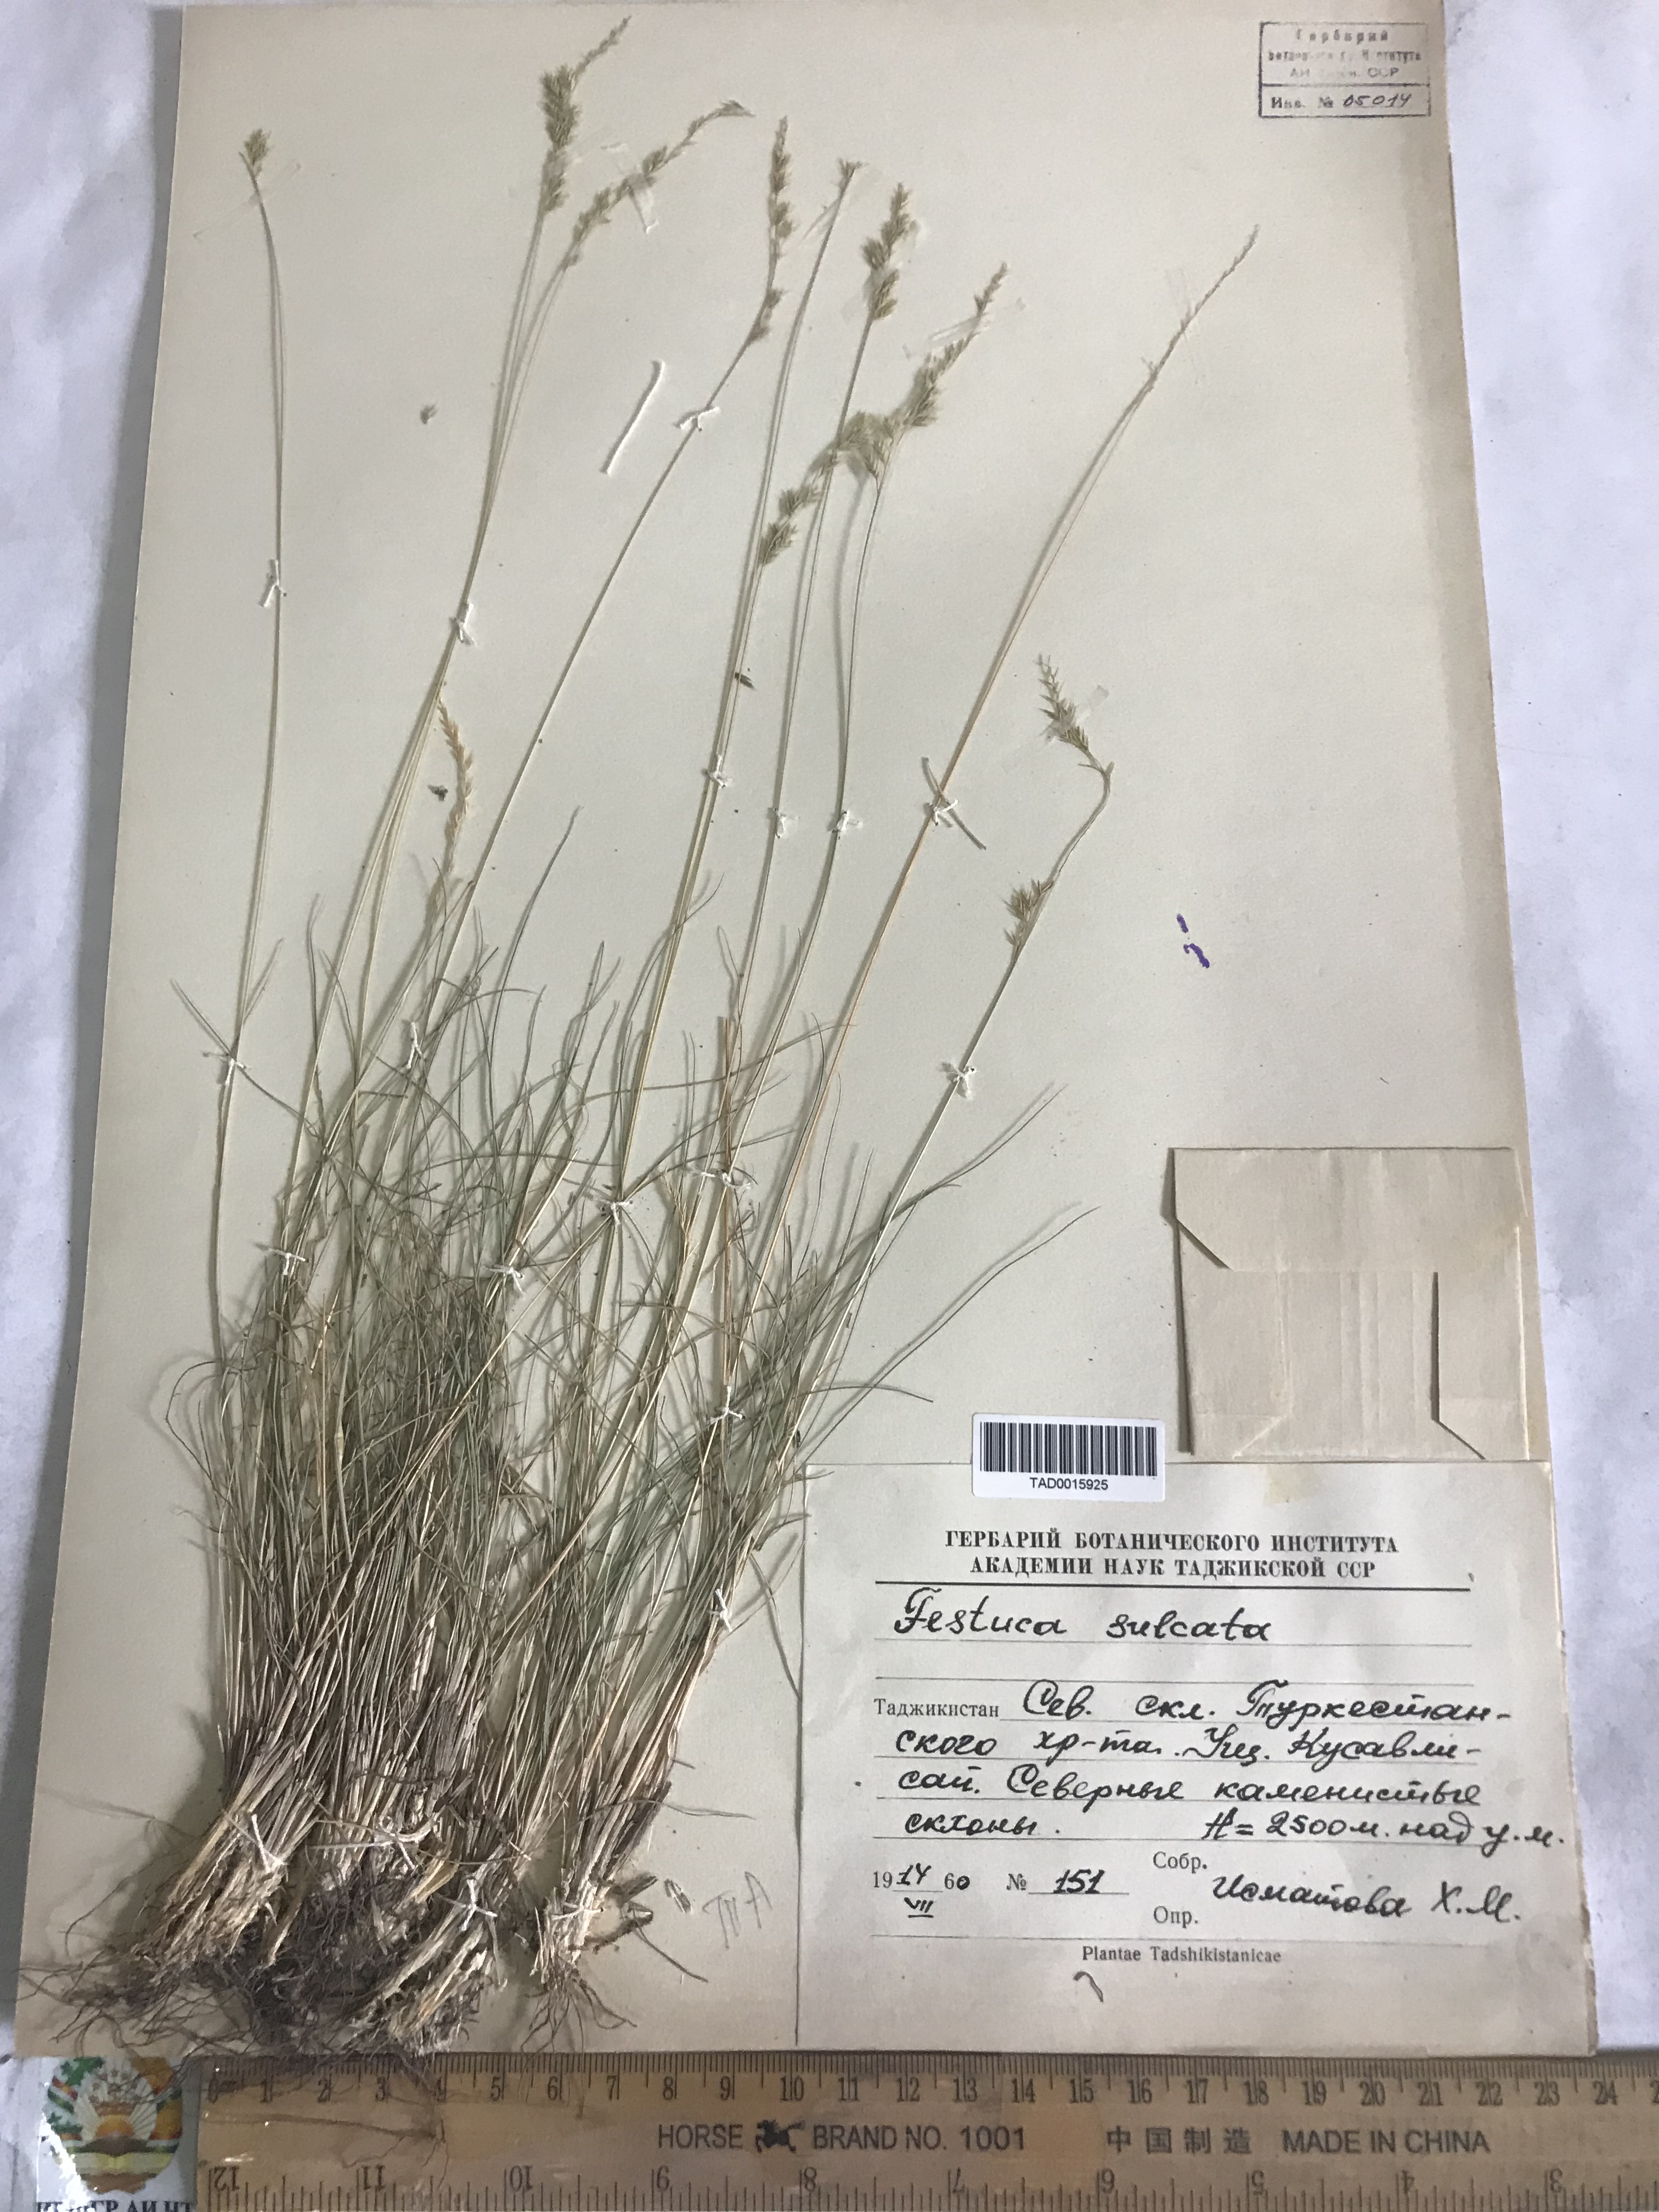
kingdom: Plantae
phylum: Tracheophyta
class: Liliopsida
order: Poales
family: Poaceae
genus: Festuca
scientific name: Festuca sulcata
